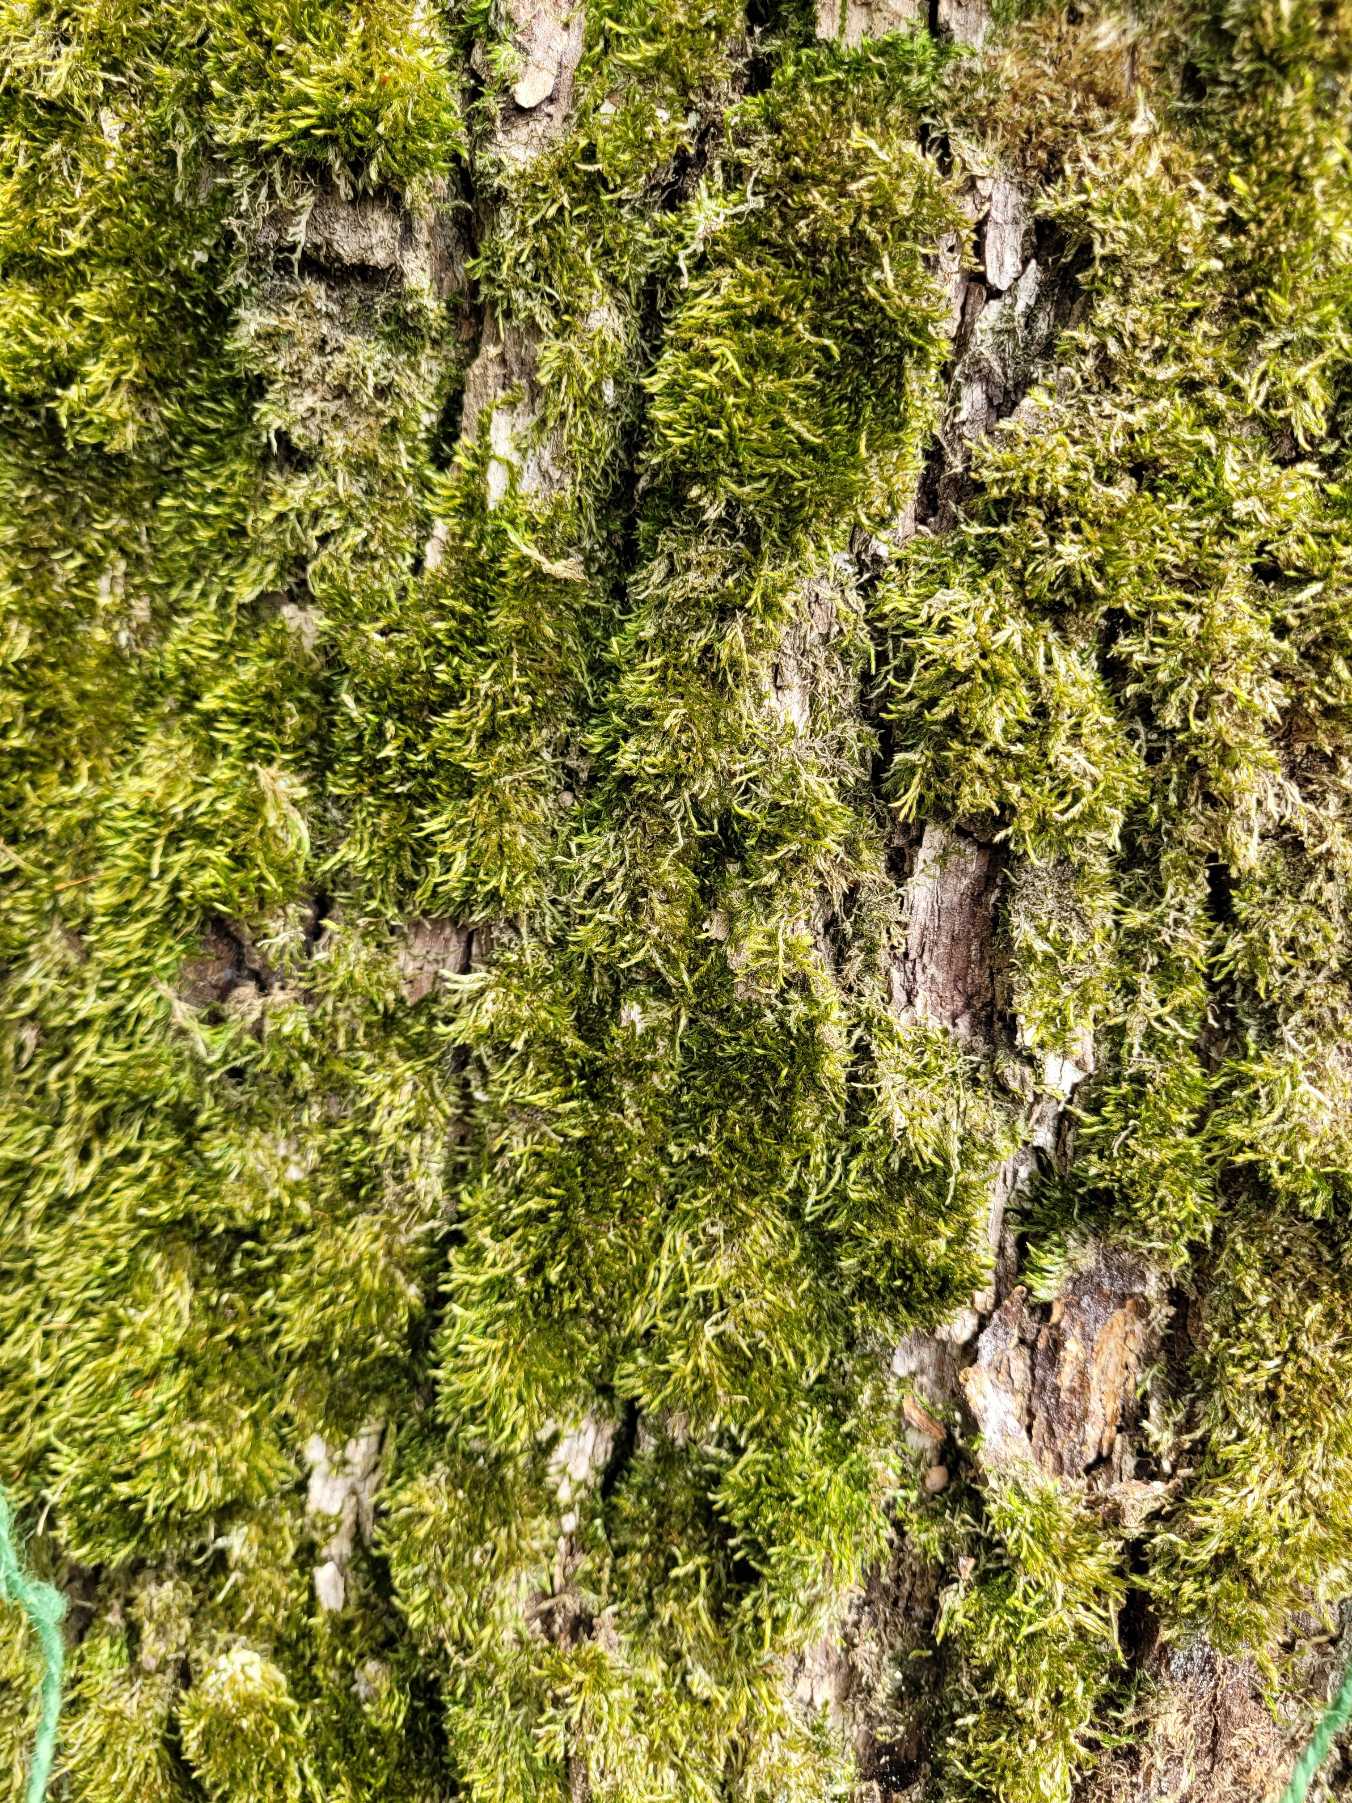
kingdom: Plantae
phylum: Bryophyta
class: Bryopsida
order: Hypnales
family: Hypnaceae
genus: Hypnum
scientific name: Hypnum
